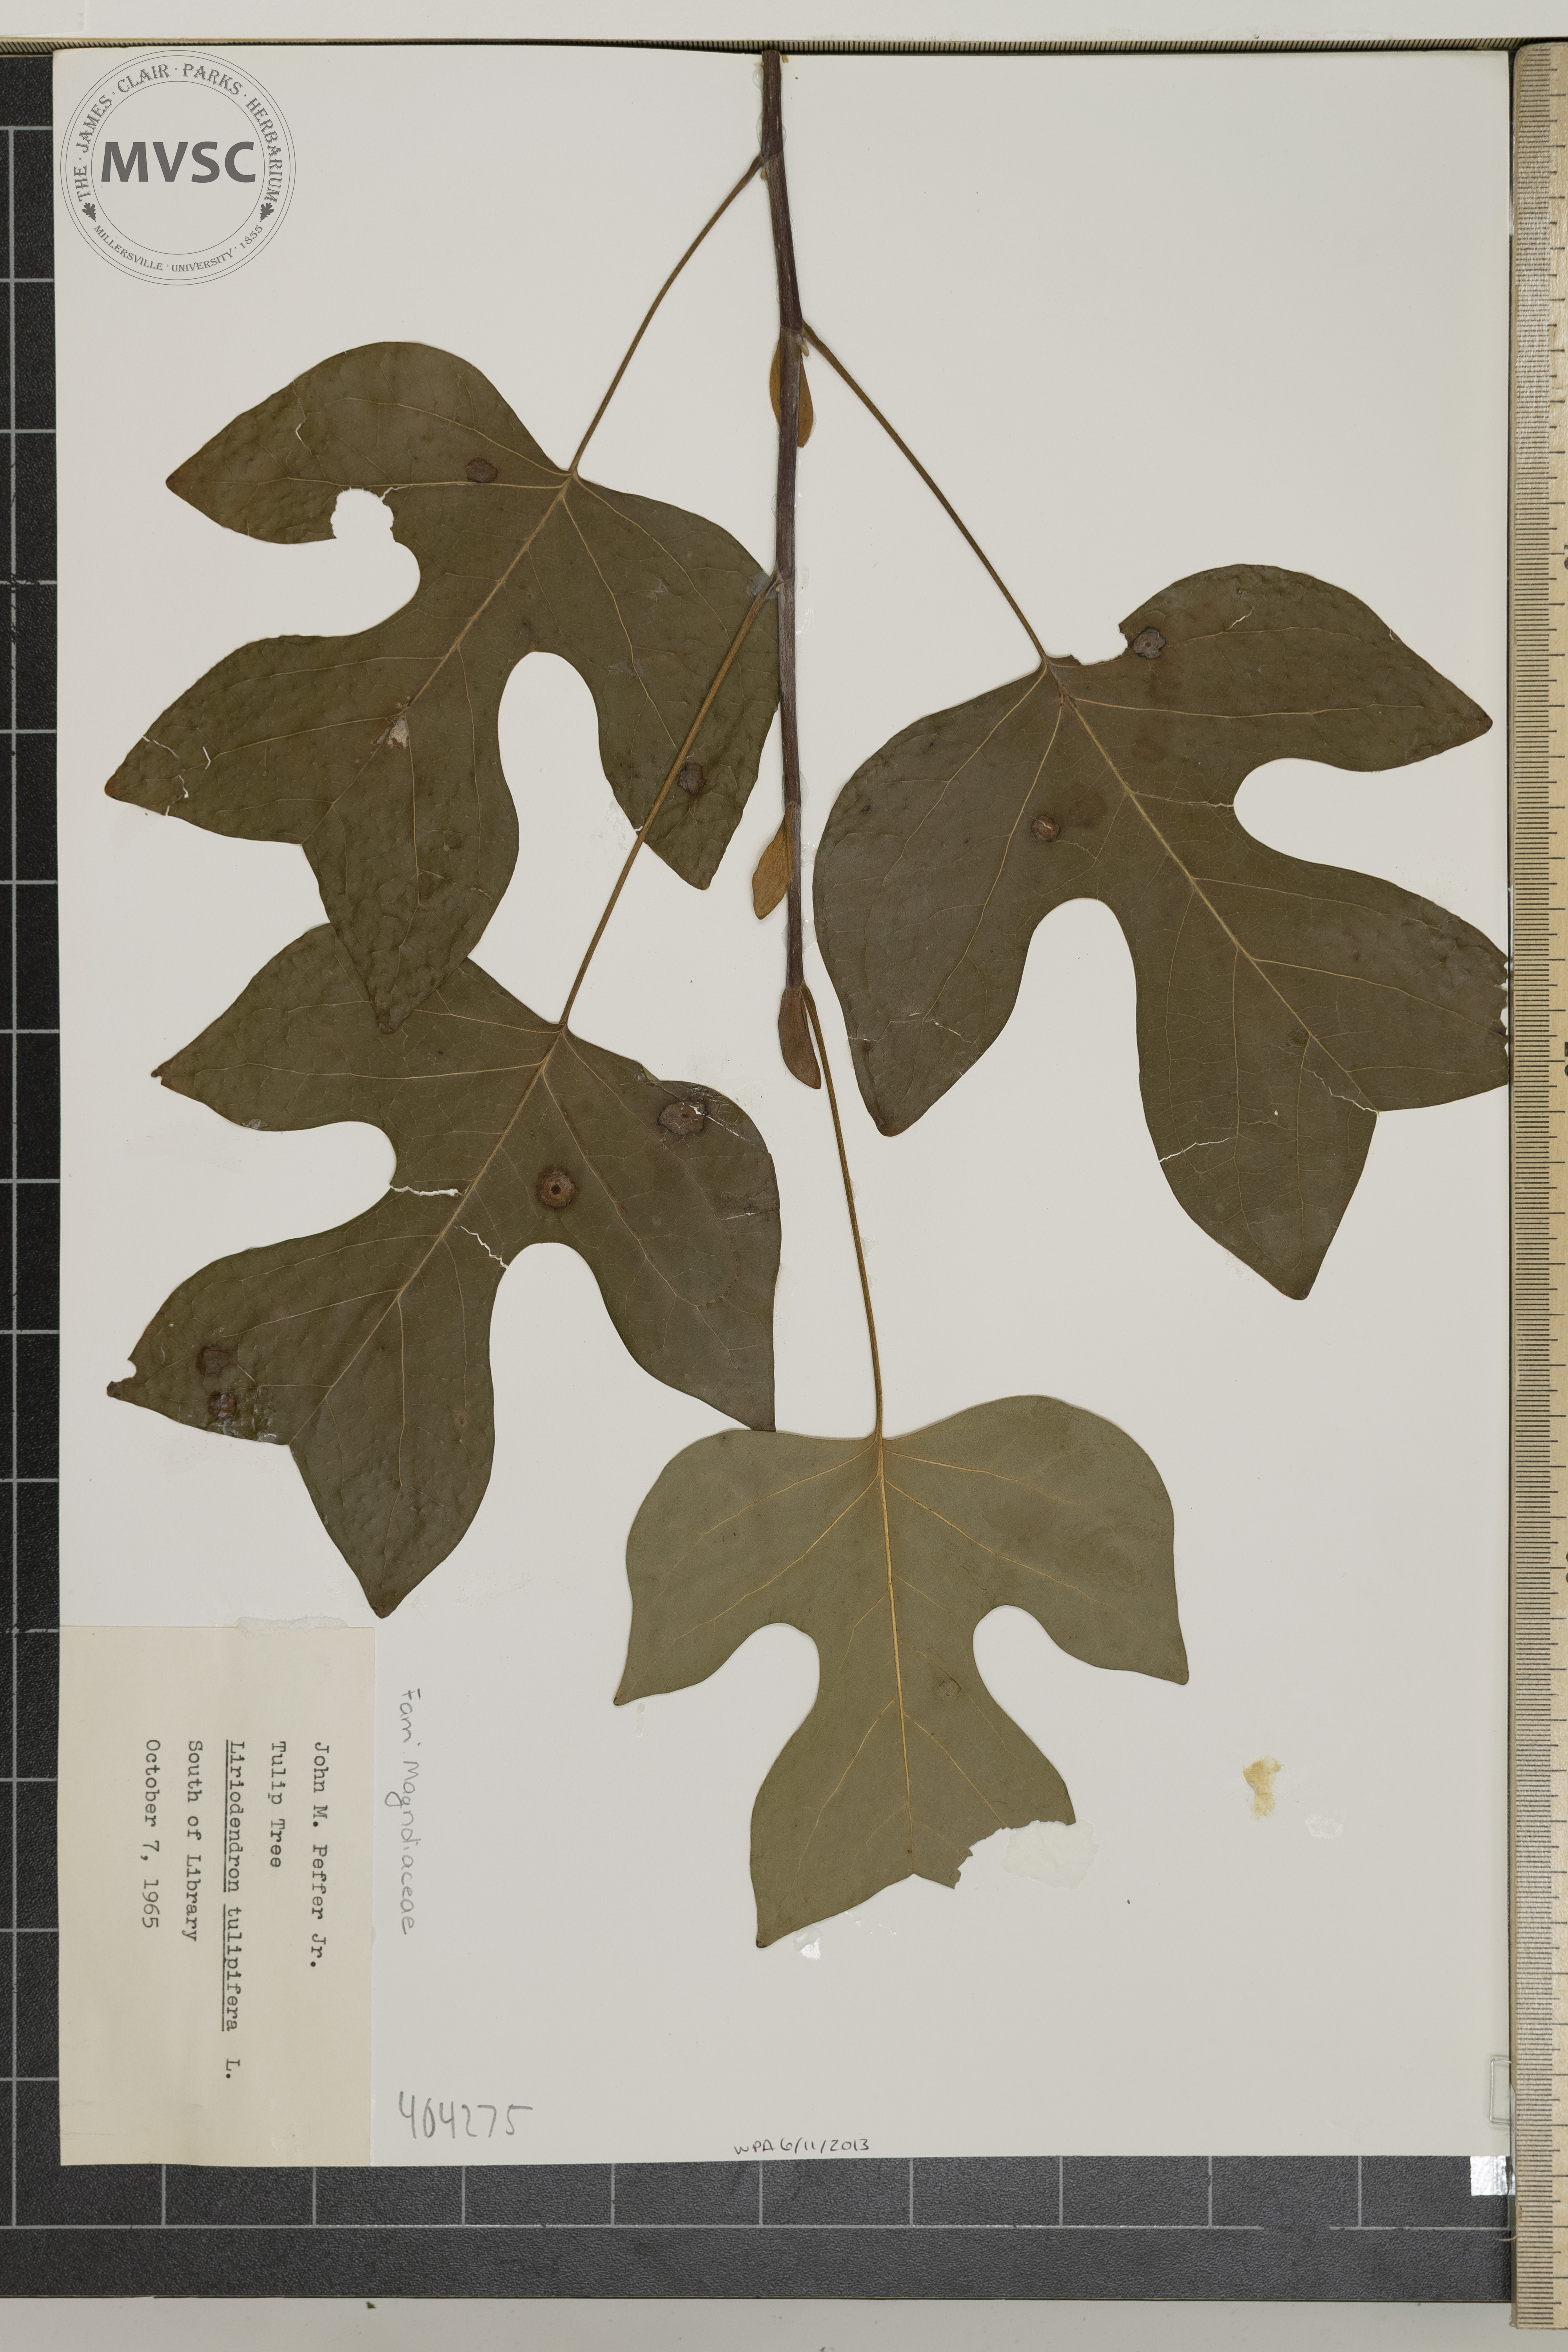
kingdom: Plantae
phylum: Tracheophyta
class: Magnoliopsida
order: Magnoliales
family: Magnoliaceae
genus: Liriodendron
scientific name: Liriodendron tulipifera
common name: Tulip Tree
